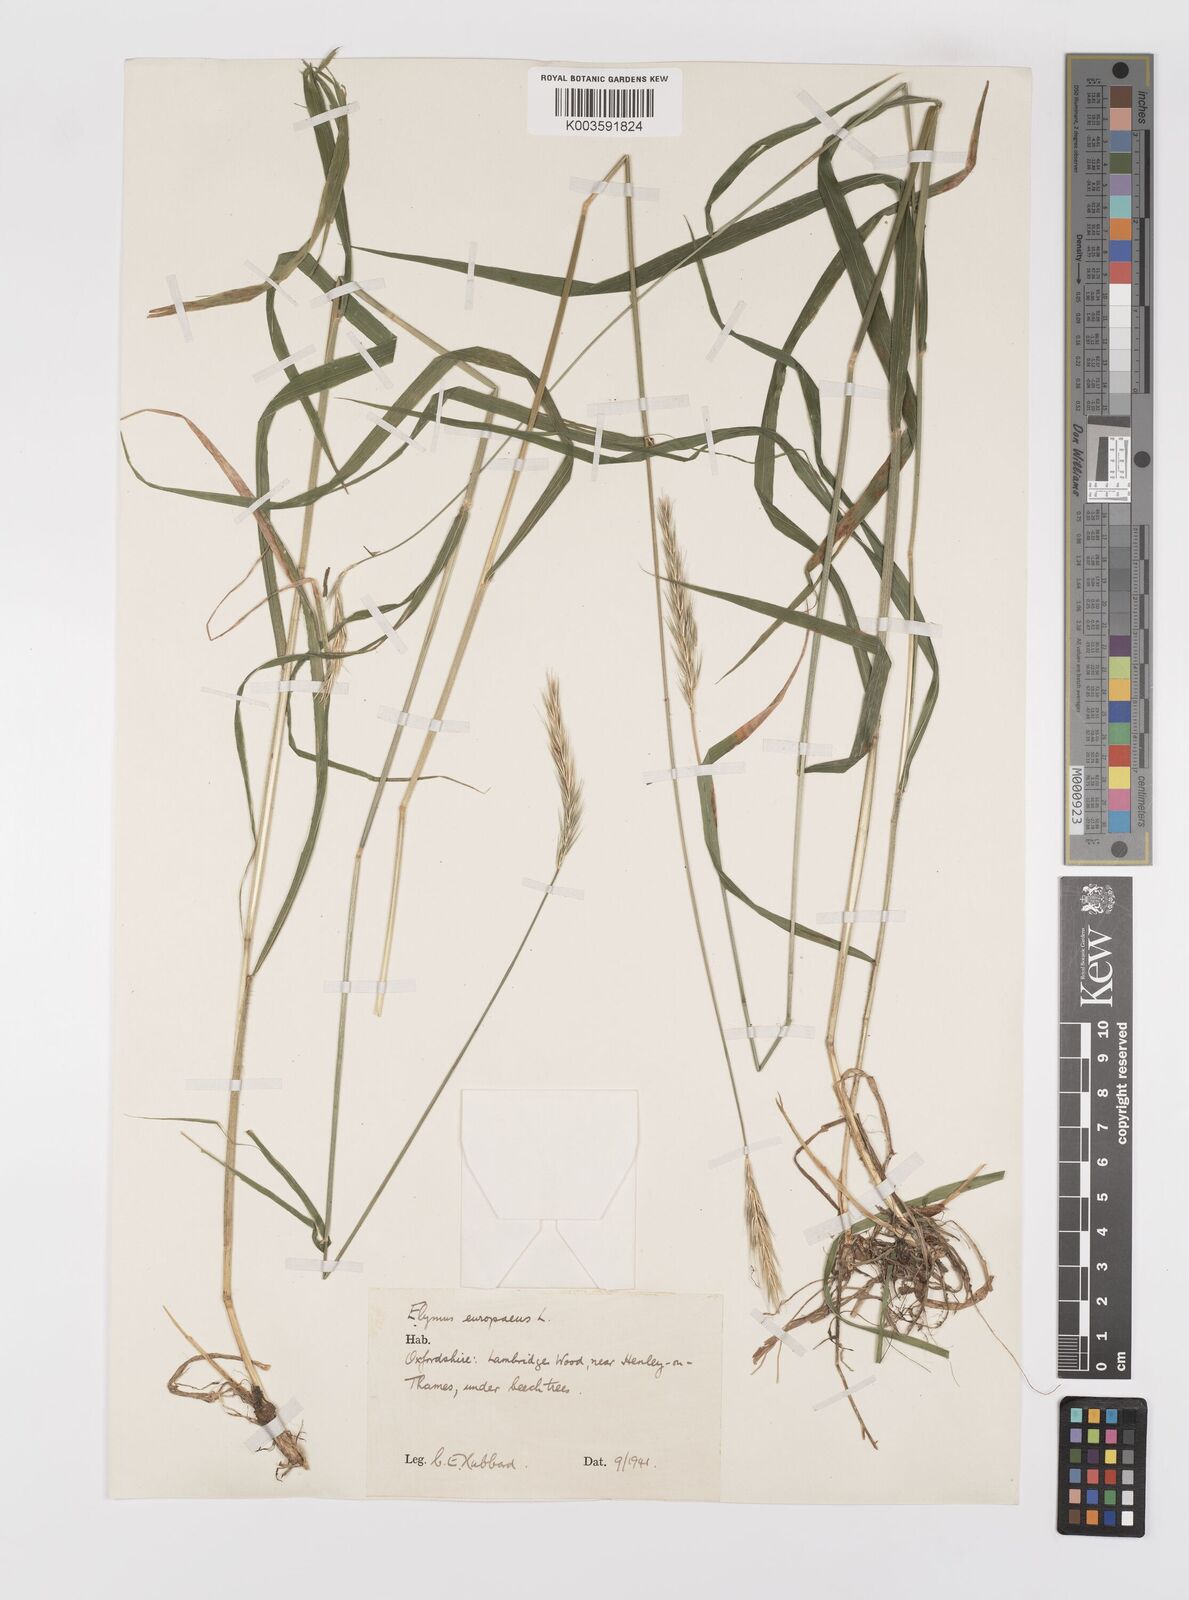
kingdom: Plantae
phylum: Tracheophyta
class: Liliopsida
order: Poales
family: Poaceae
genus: Hordelymus
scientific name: Hordelymus europaeus
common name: Wood-barley
